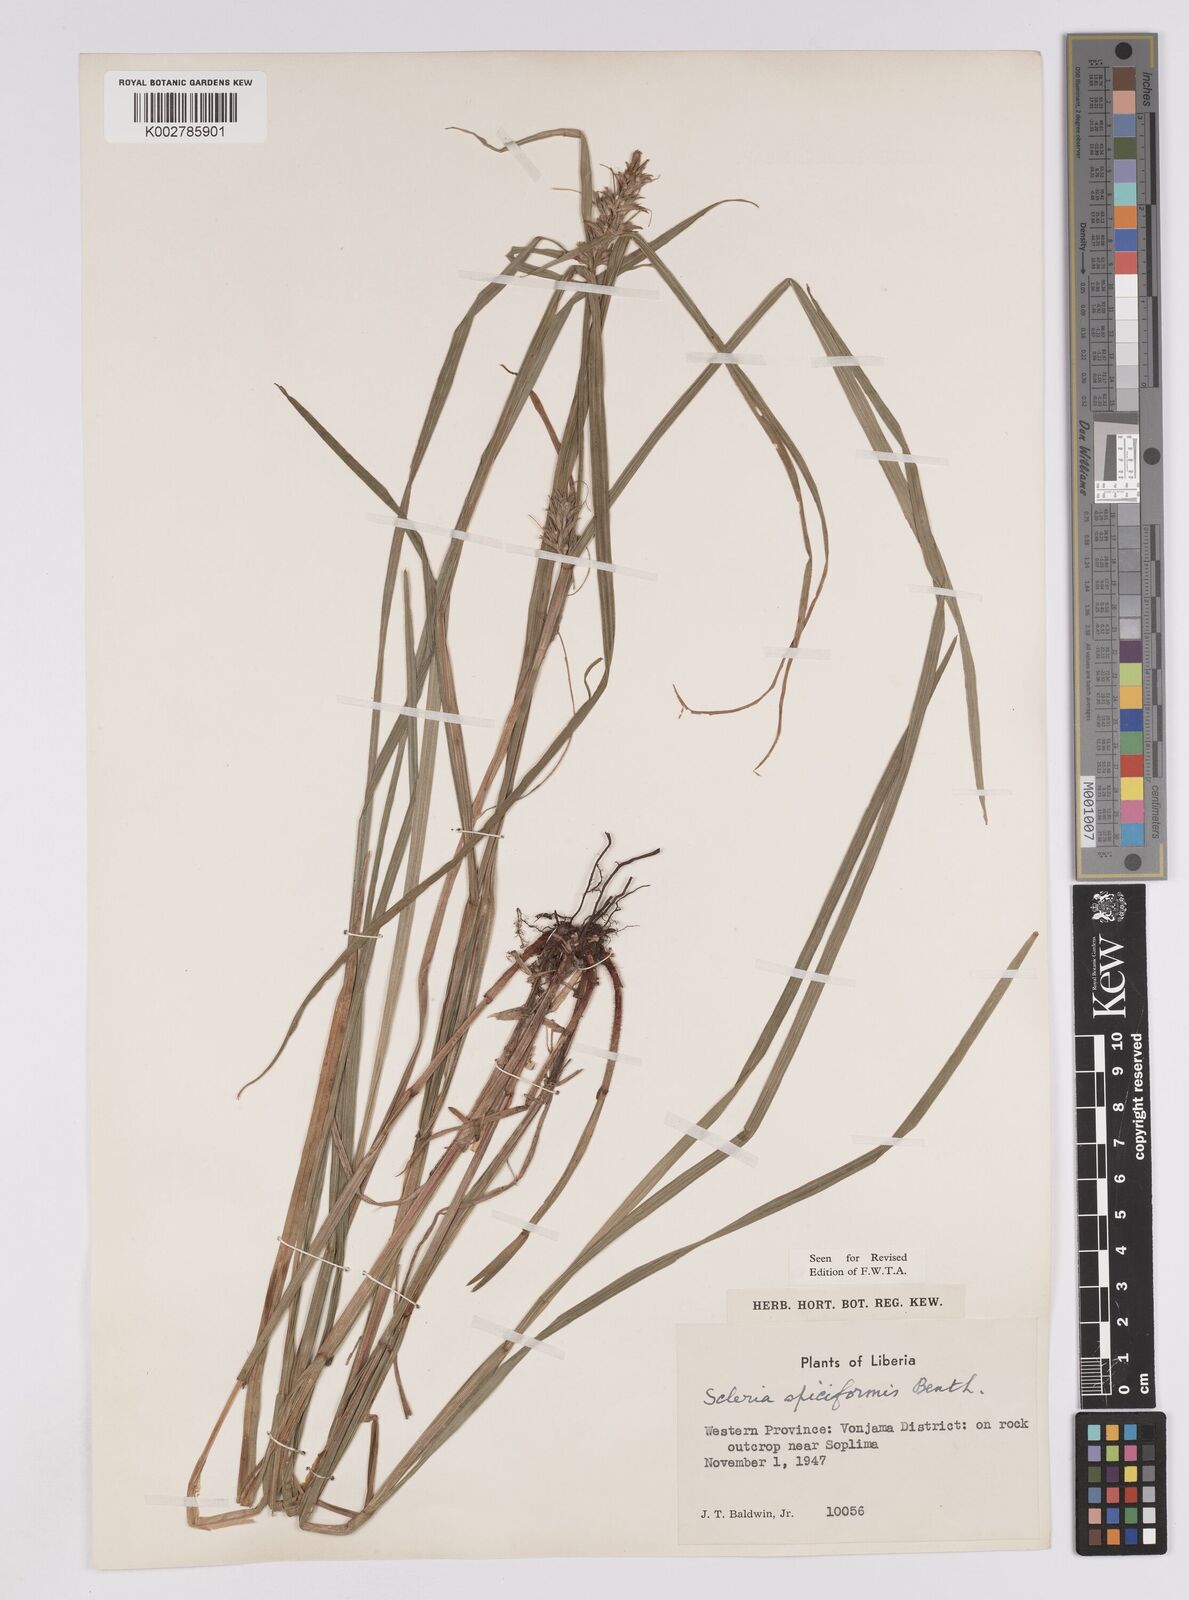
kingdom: Plantae
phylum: Tracheophyta
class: Liliopsida
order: Poales
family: Cyperaceae
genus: Scleria
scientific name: Scleria spiciformis
